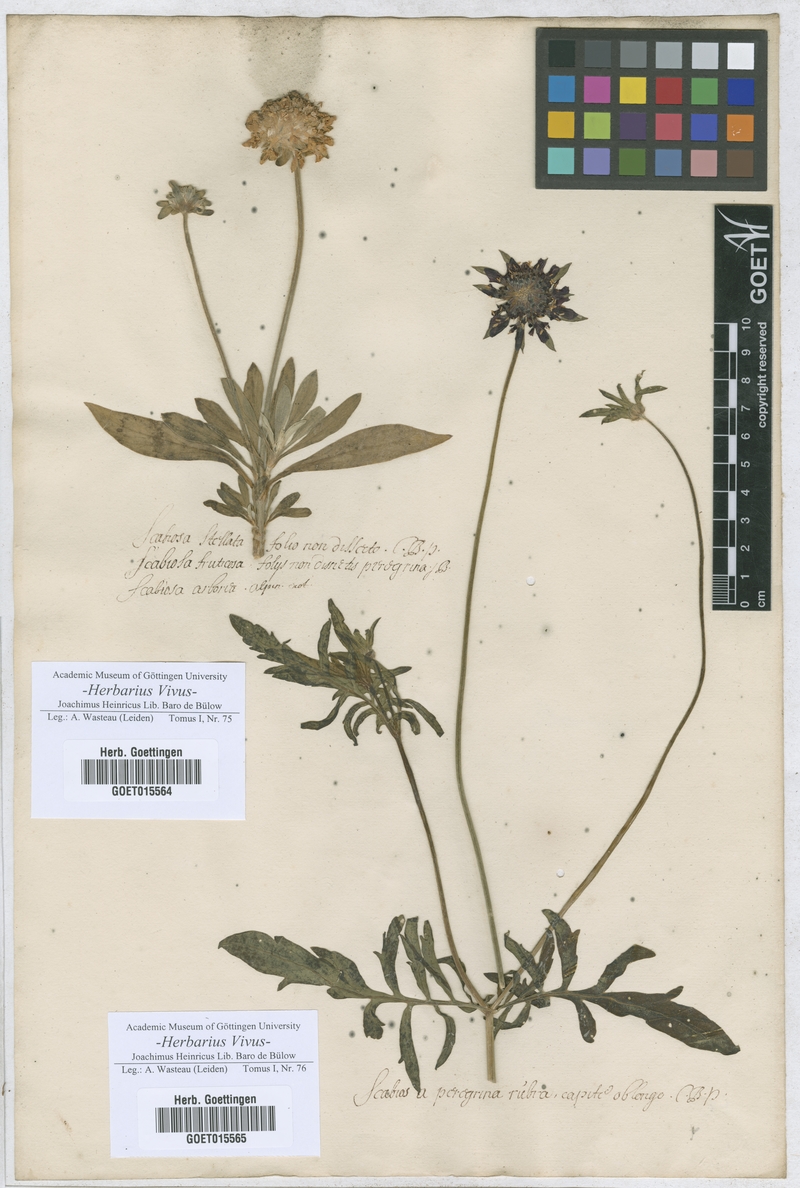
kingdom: Plantae
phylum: Tracheophyta
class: Magnoliopsida
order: Dipsacales
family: Caprifoliaceae
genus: Lomelosia
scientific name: Lomelosia stellata
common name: Teasel
